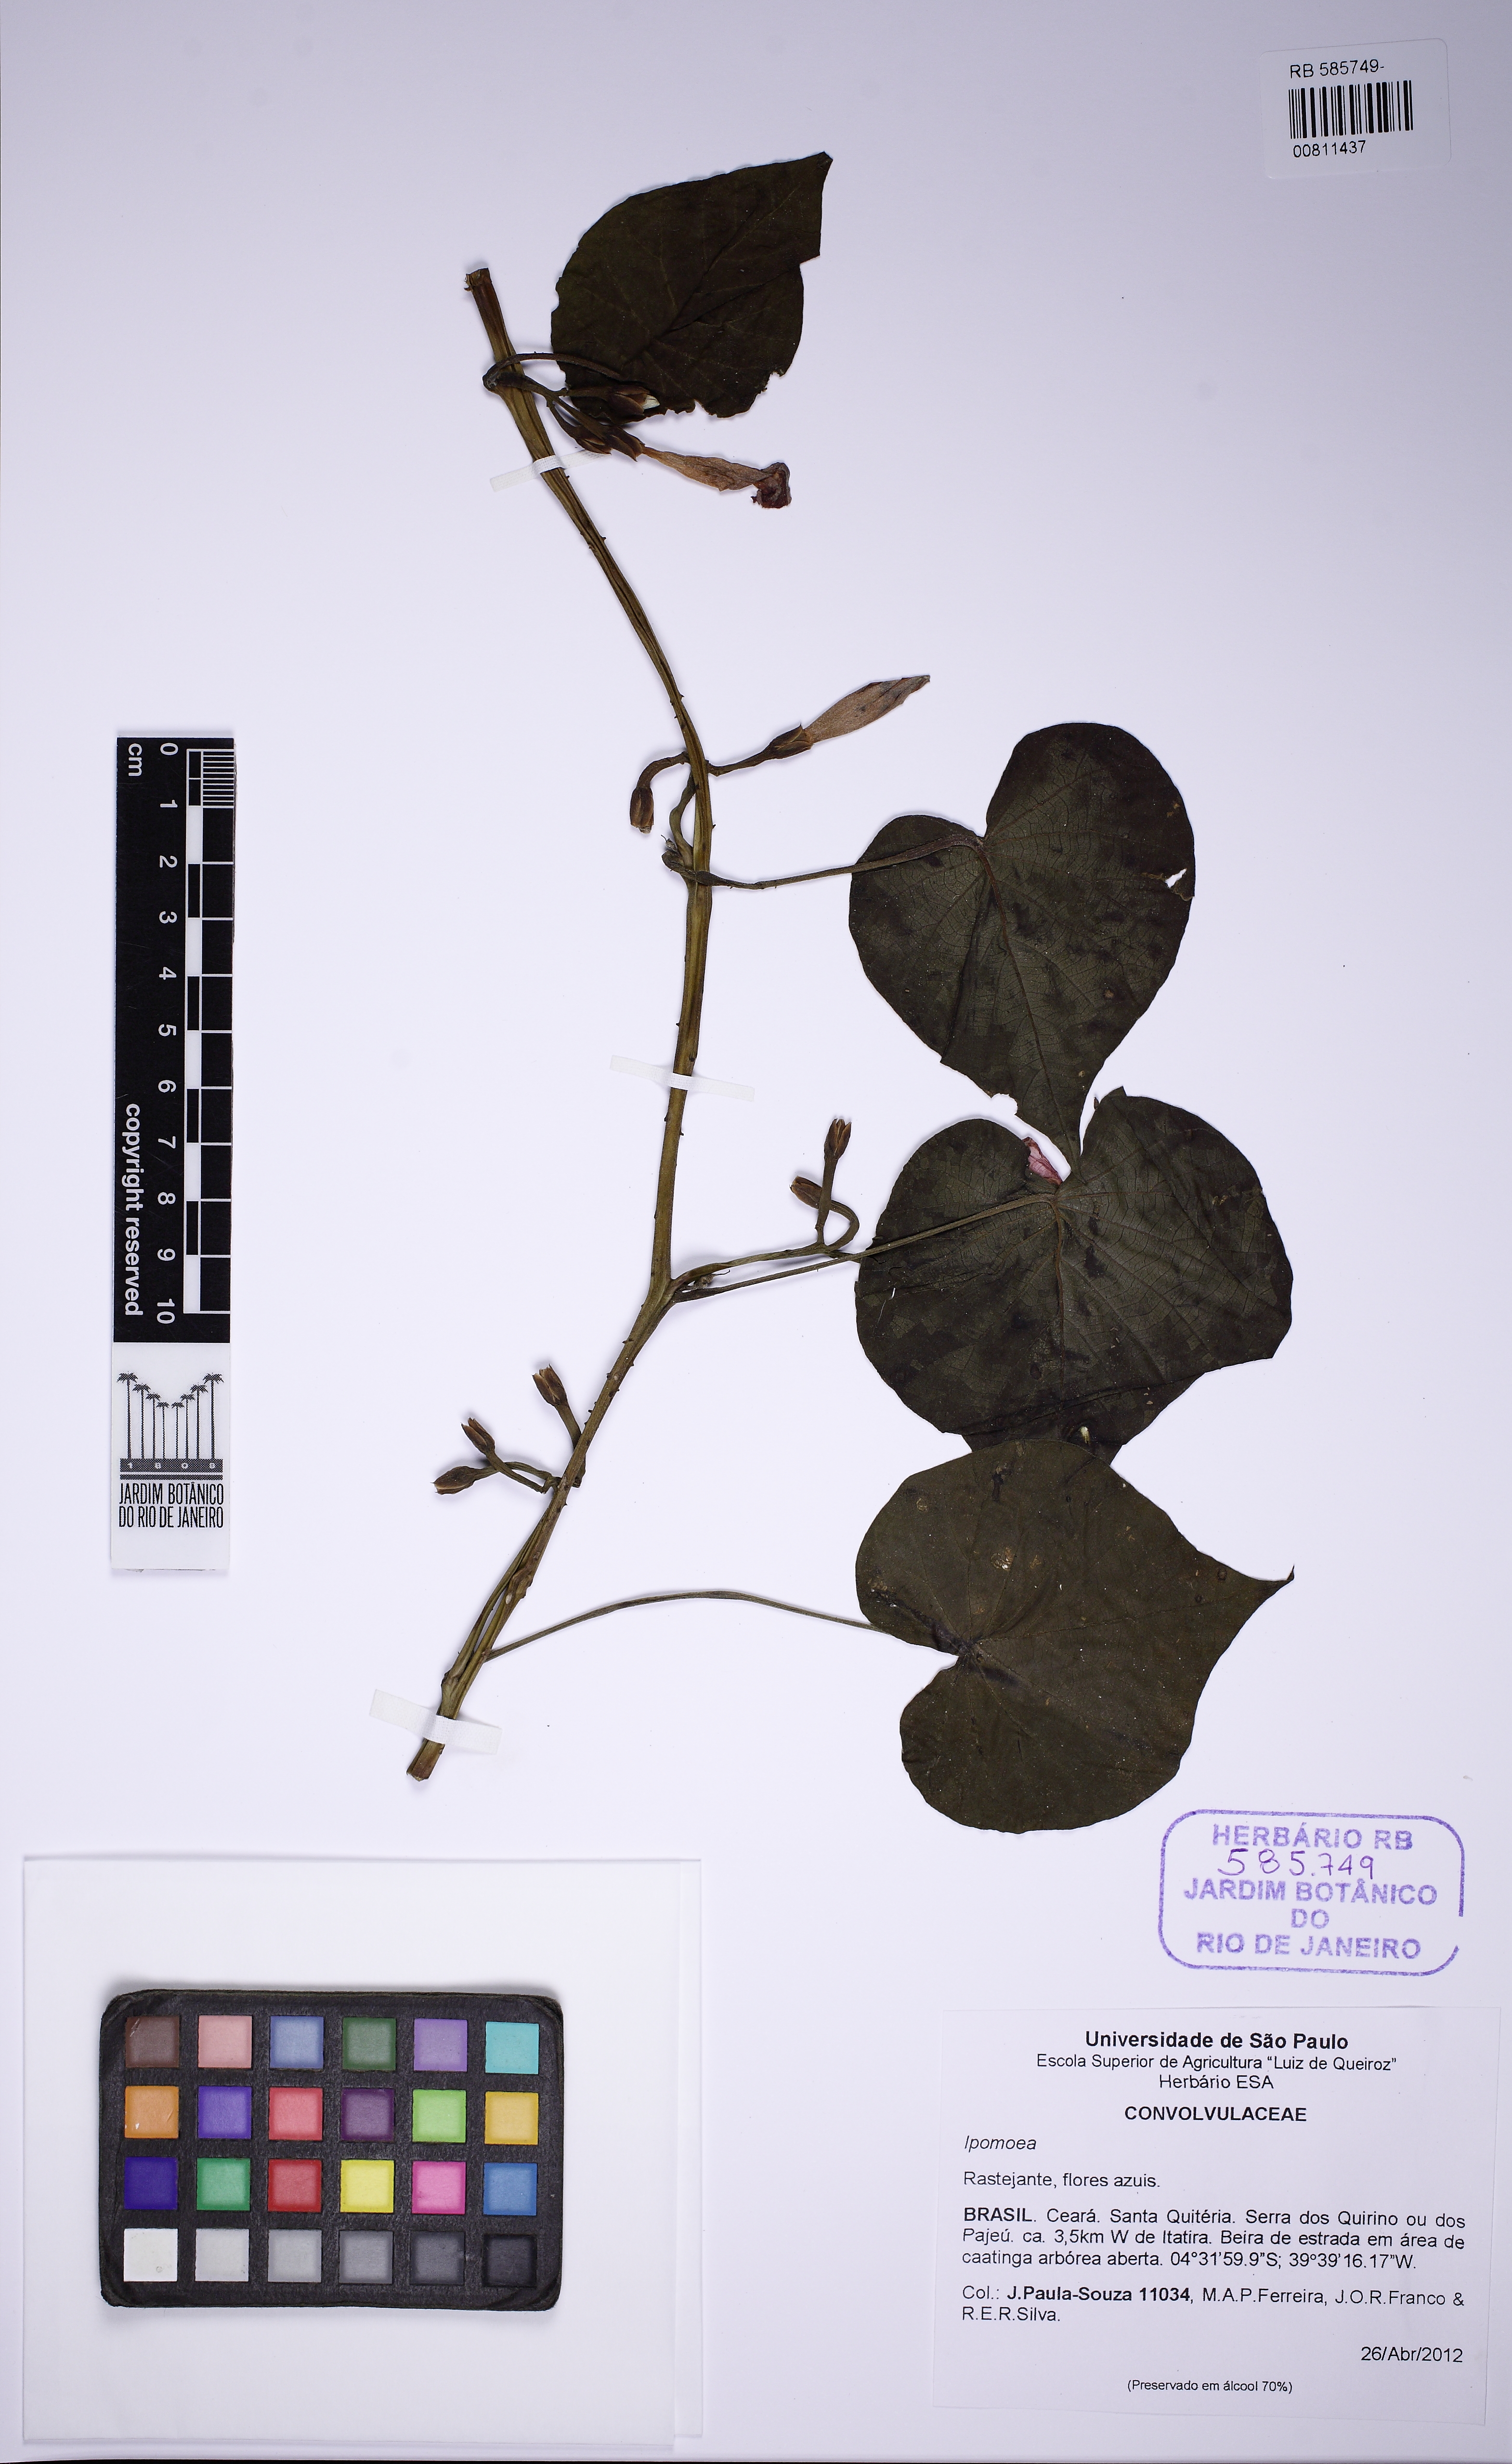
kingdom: Plantae
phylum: Tracheophyta
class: Magnoliopsida
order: Solanales
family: Convolvulaceae
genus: Ipomoea
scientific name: Ipomoea parasitica
